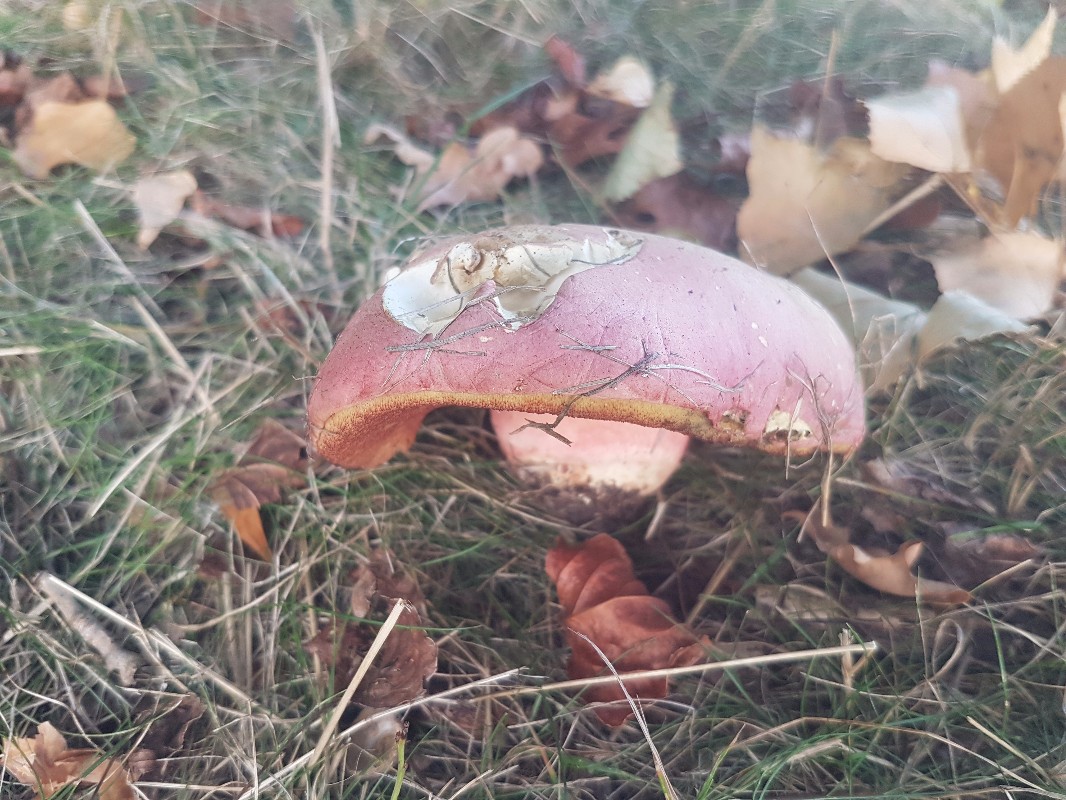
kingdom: Fungi
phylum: Basidiomycota
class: Agaricomycetes
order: Boletales
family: Boletaceae
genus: Rubroboletus
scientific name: Rubroboletus legaliae
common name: djævle-rørhat
